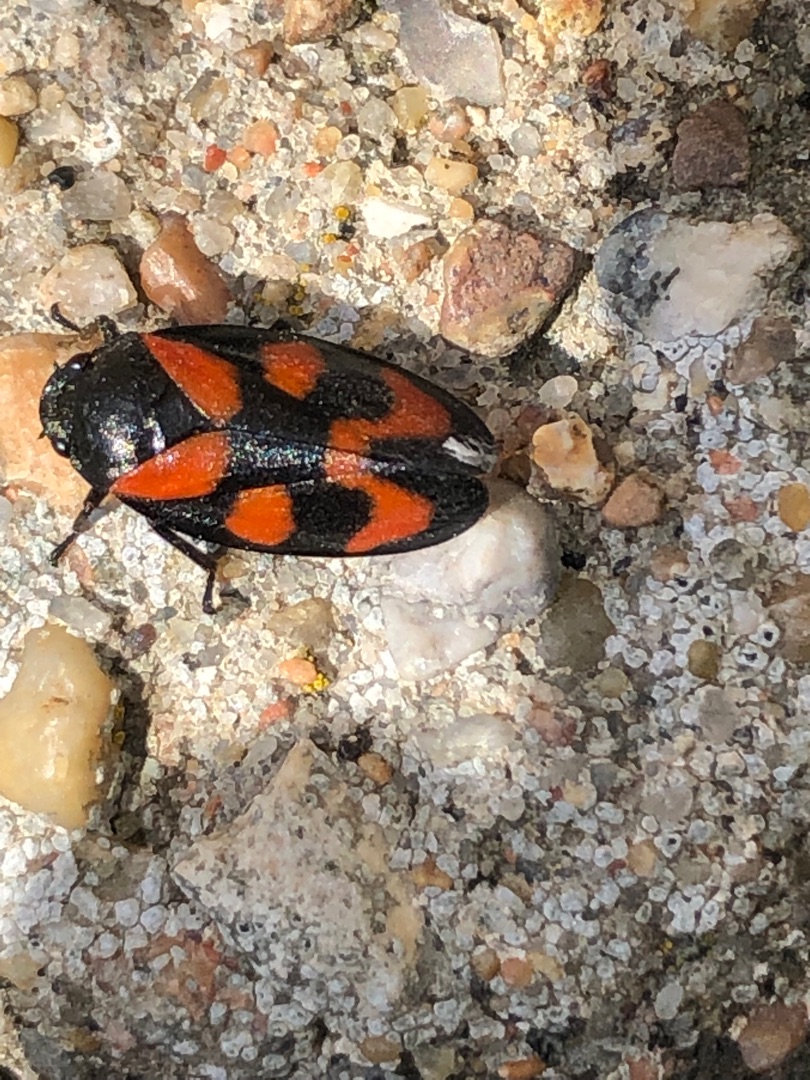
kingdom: Animalia
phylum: Arthropoda
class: Insecta
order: Hemiptera
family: Cercopidae
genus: Cercopis
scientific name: Cercopis vulnerata
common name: Blodcikade
